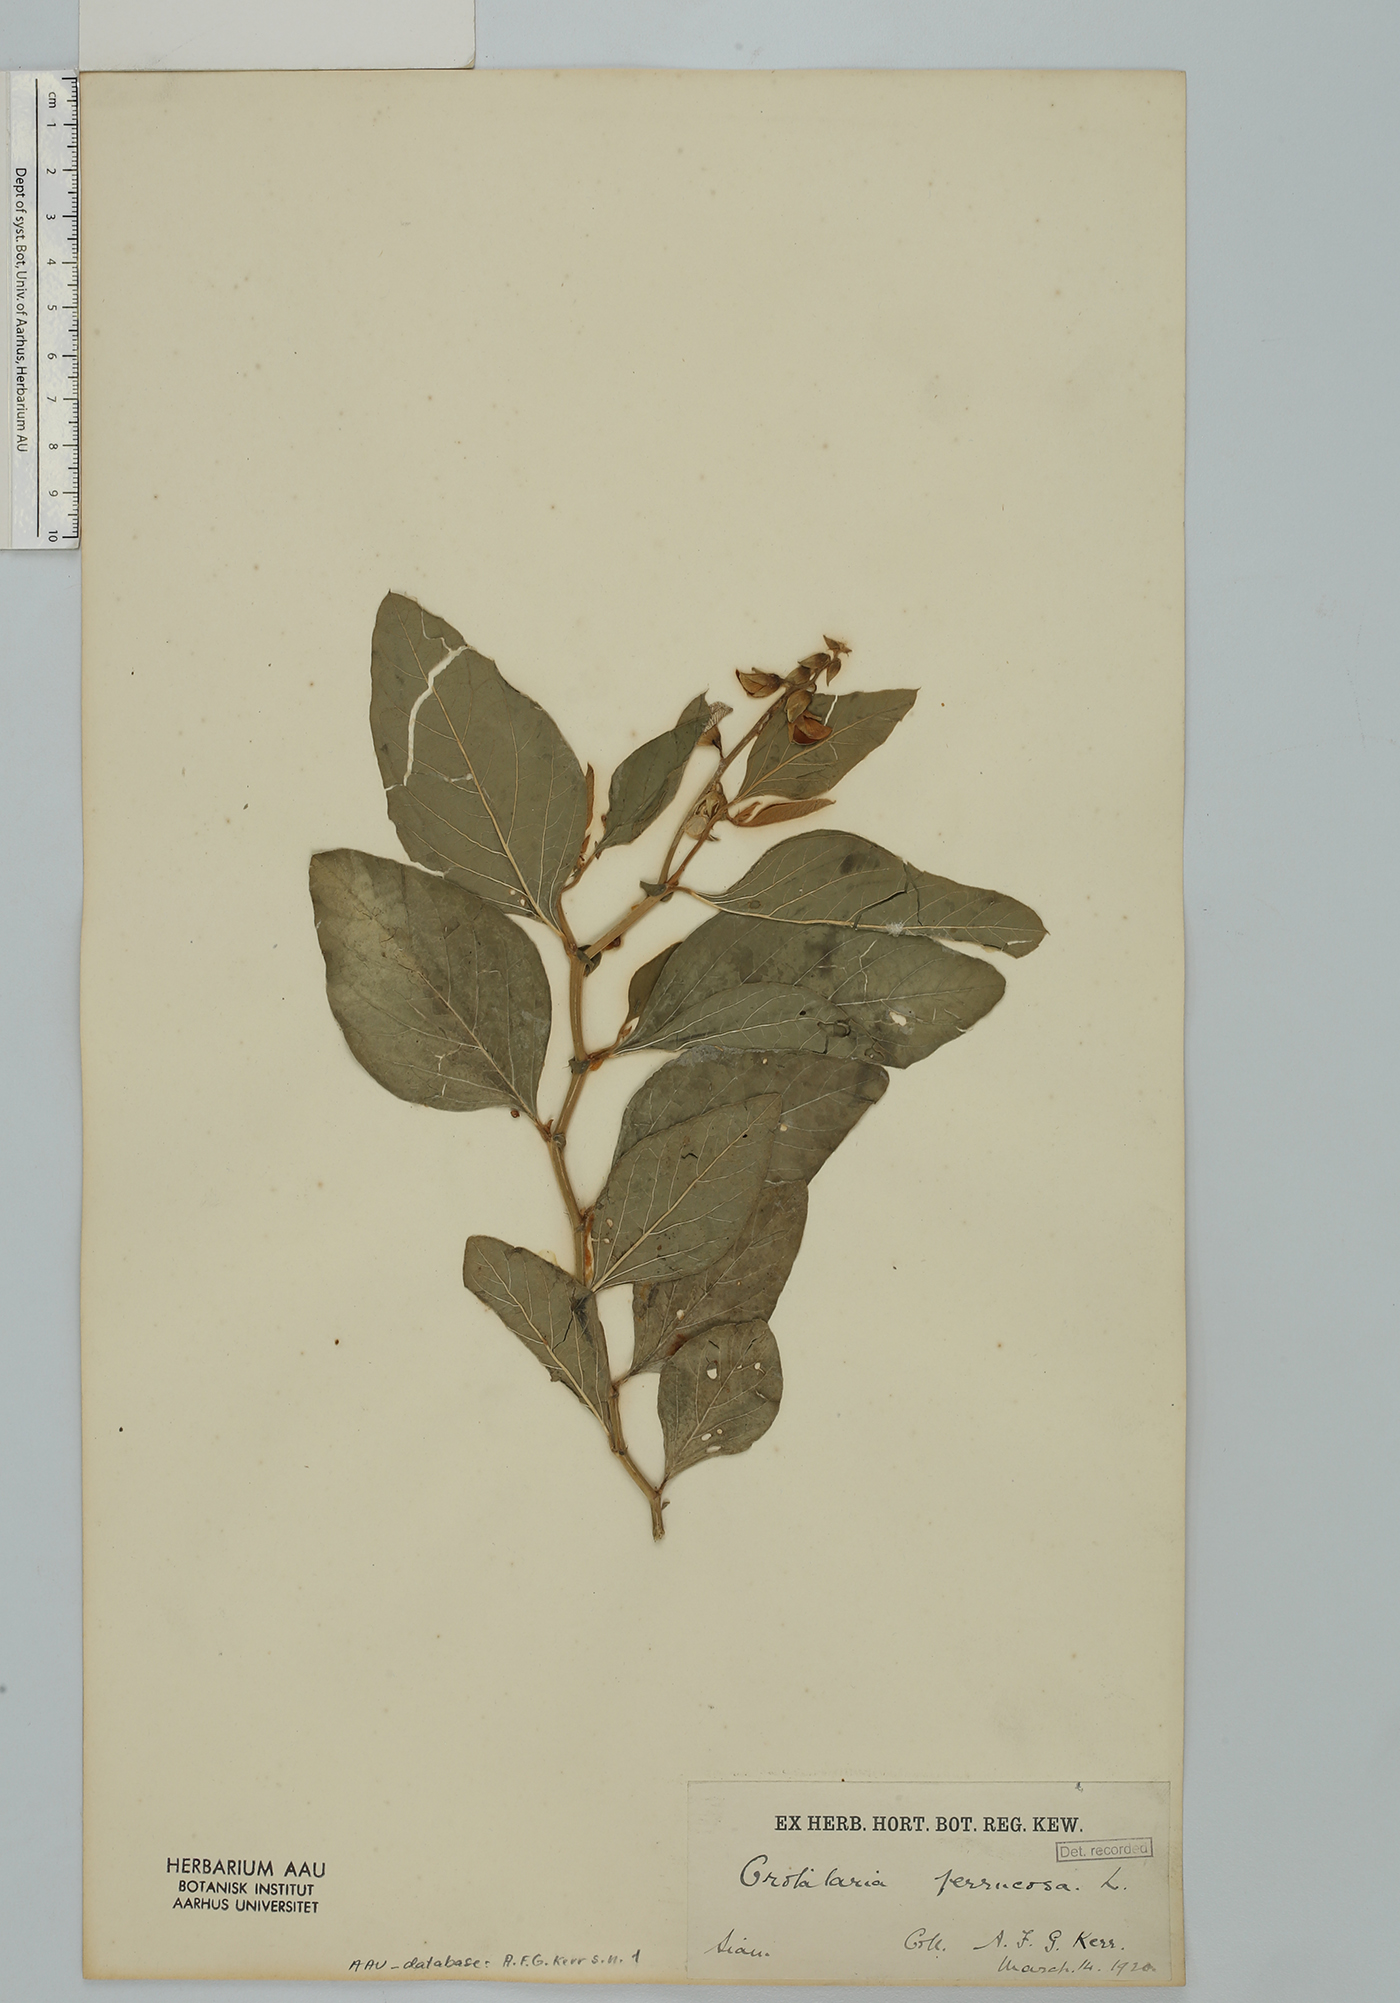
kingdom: Plantae
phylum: Tracheophyta
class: Magnoliopsida
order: Fabales
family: Fabaceae
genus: Crotalaria
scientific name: Crotalaria verrucosa
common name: Blue rattlesnake
